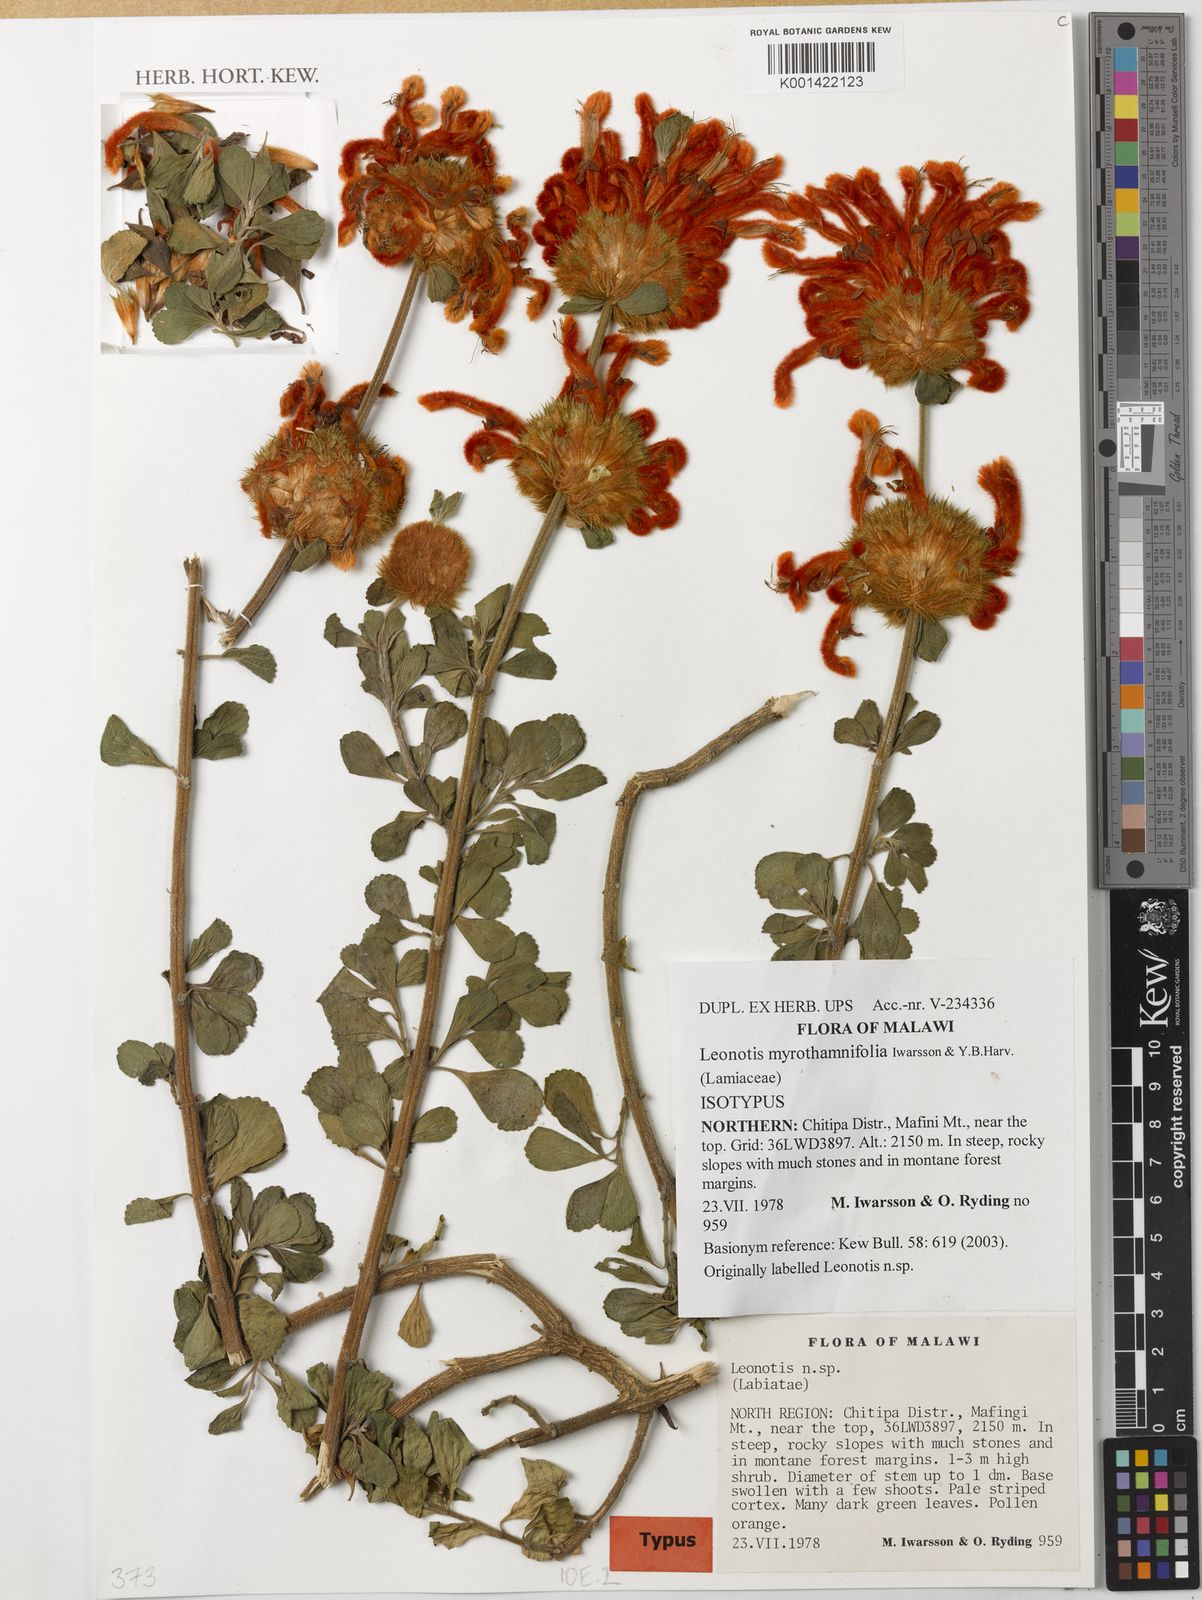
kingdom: Plantae
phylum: Tracheophyta
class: Magnoliopsida
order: Lamiales
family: Lamiaceae
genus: Leonotis
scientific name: Leonotis myrothamnifolia
